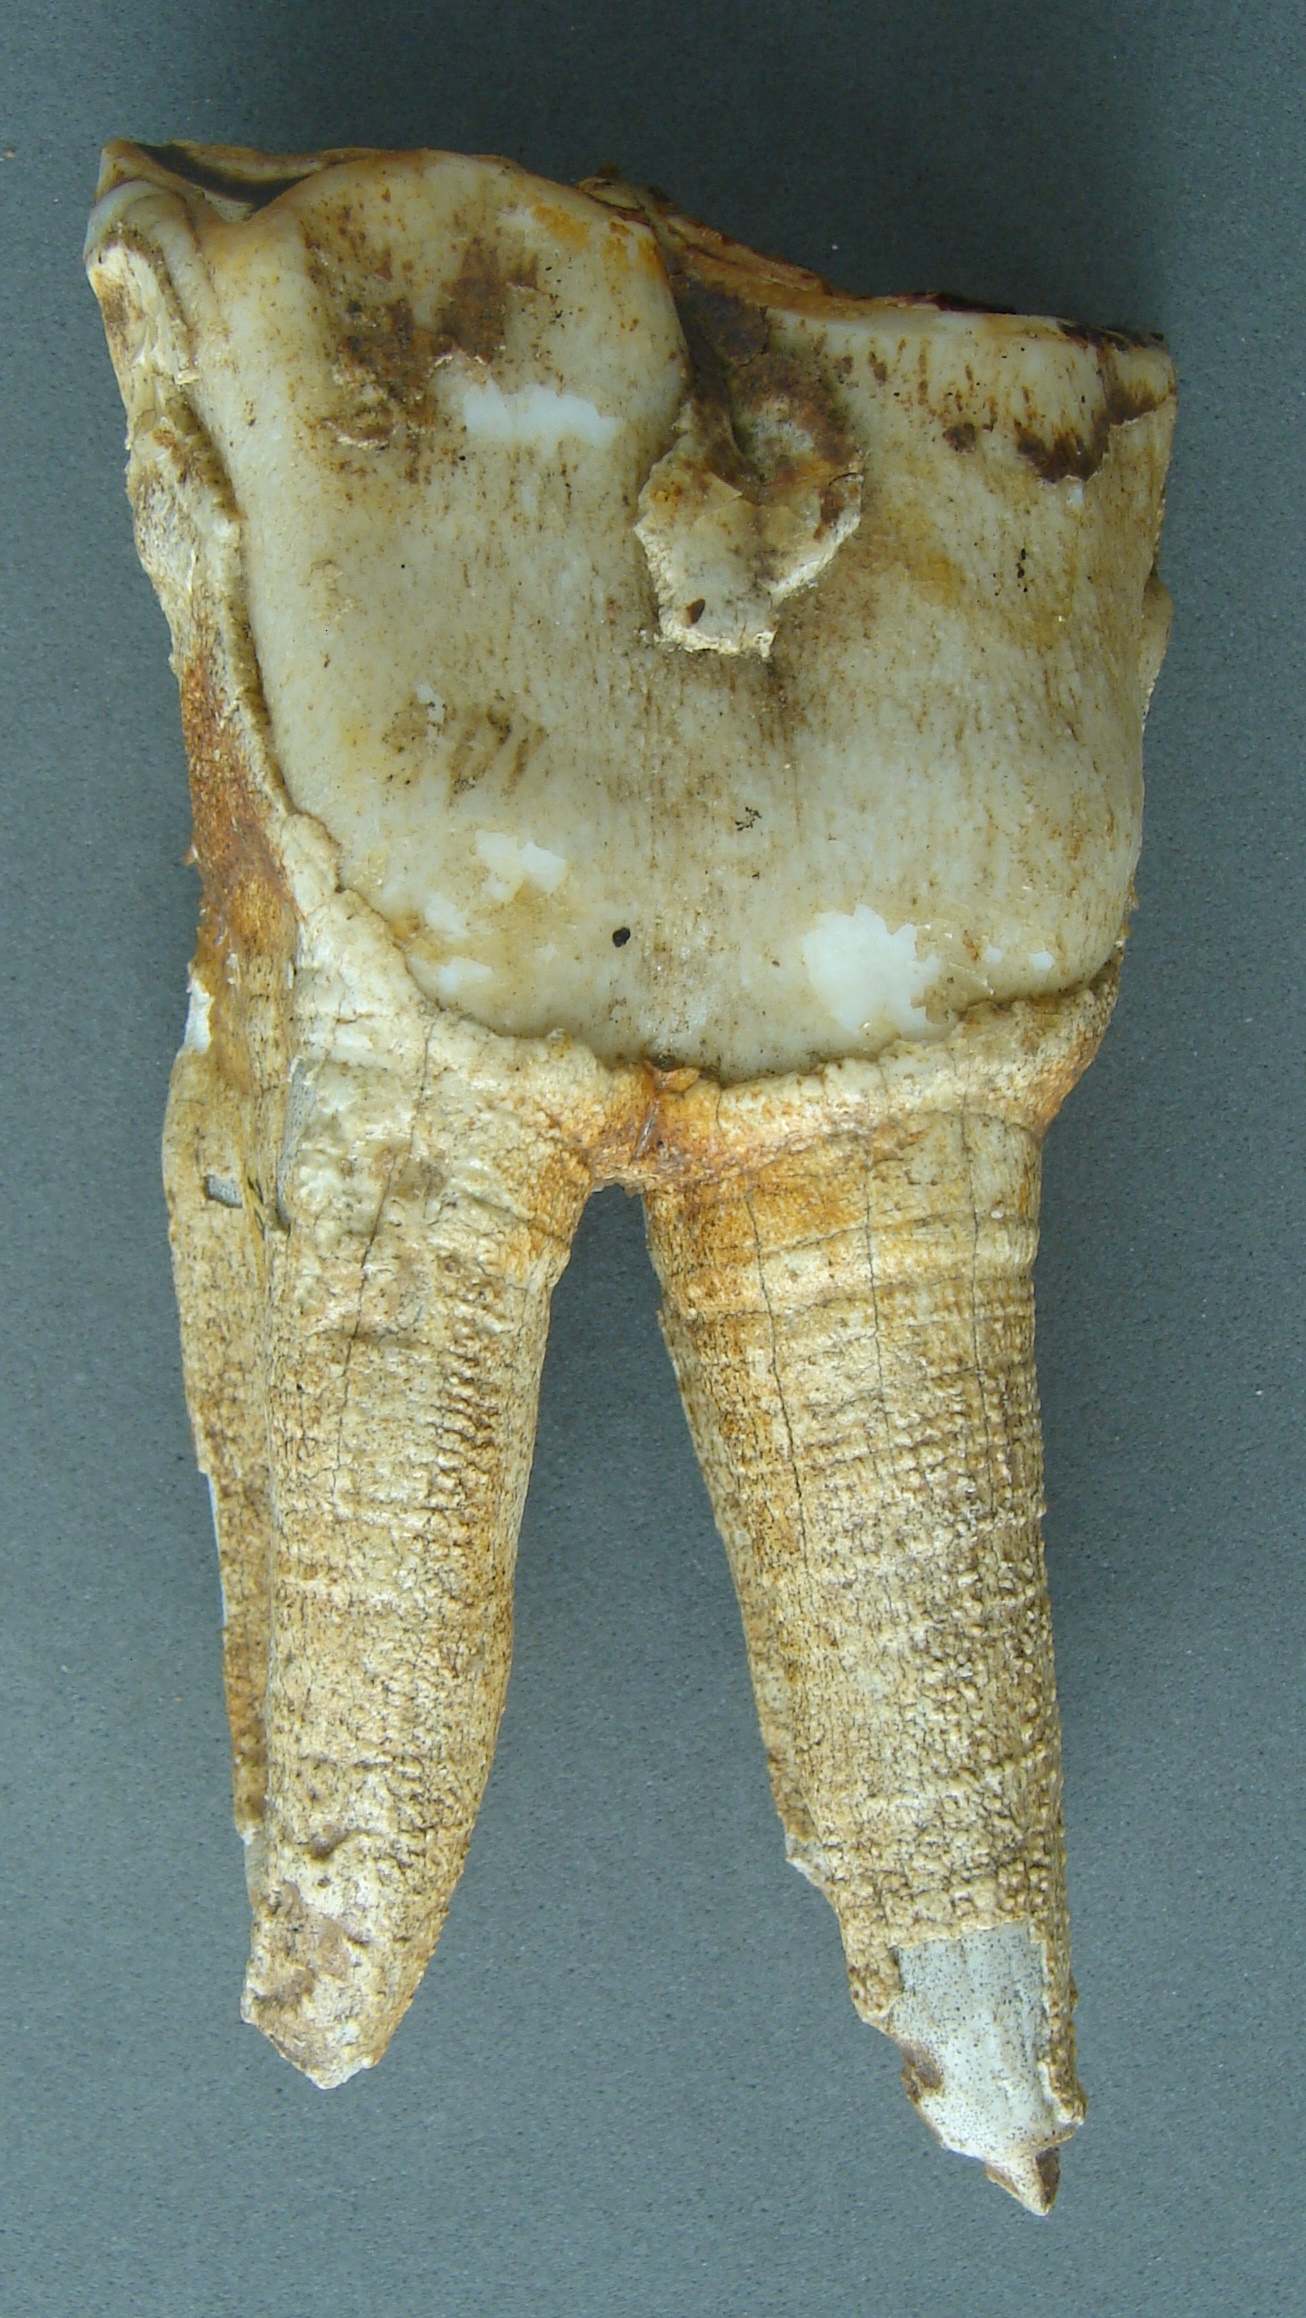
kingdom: Animalia
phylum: Chordata
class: Mammalia
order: Perissodactyla
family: Rhinocerotidae
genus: Rhinoceros
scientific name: Rhinoceros
